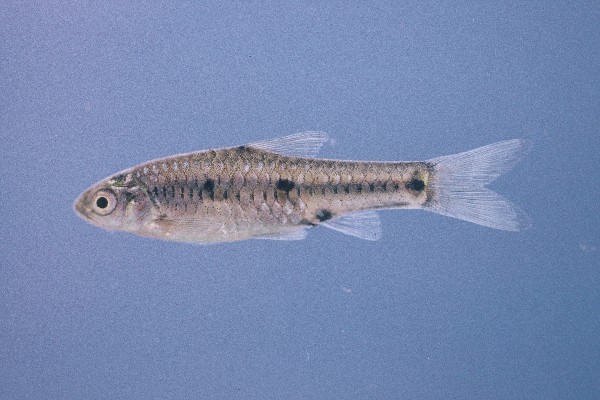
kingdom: Animalia
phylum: Chordata
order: Cypriniformes
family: Cyprinidae
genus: Enteromius
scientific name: Enteromius atkinsoni
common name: Dash-dot barb
